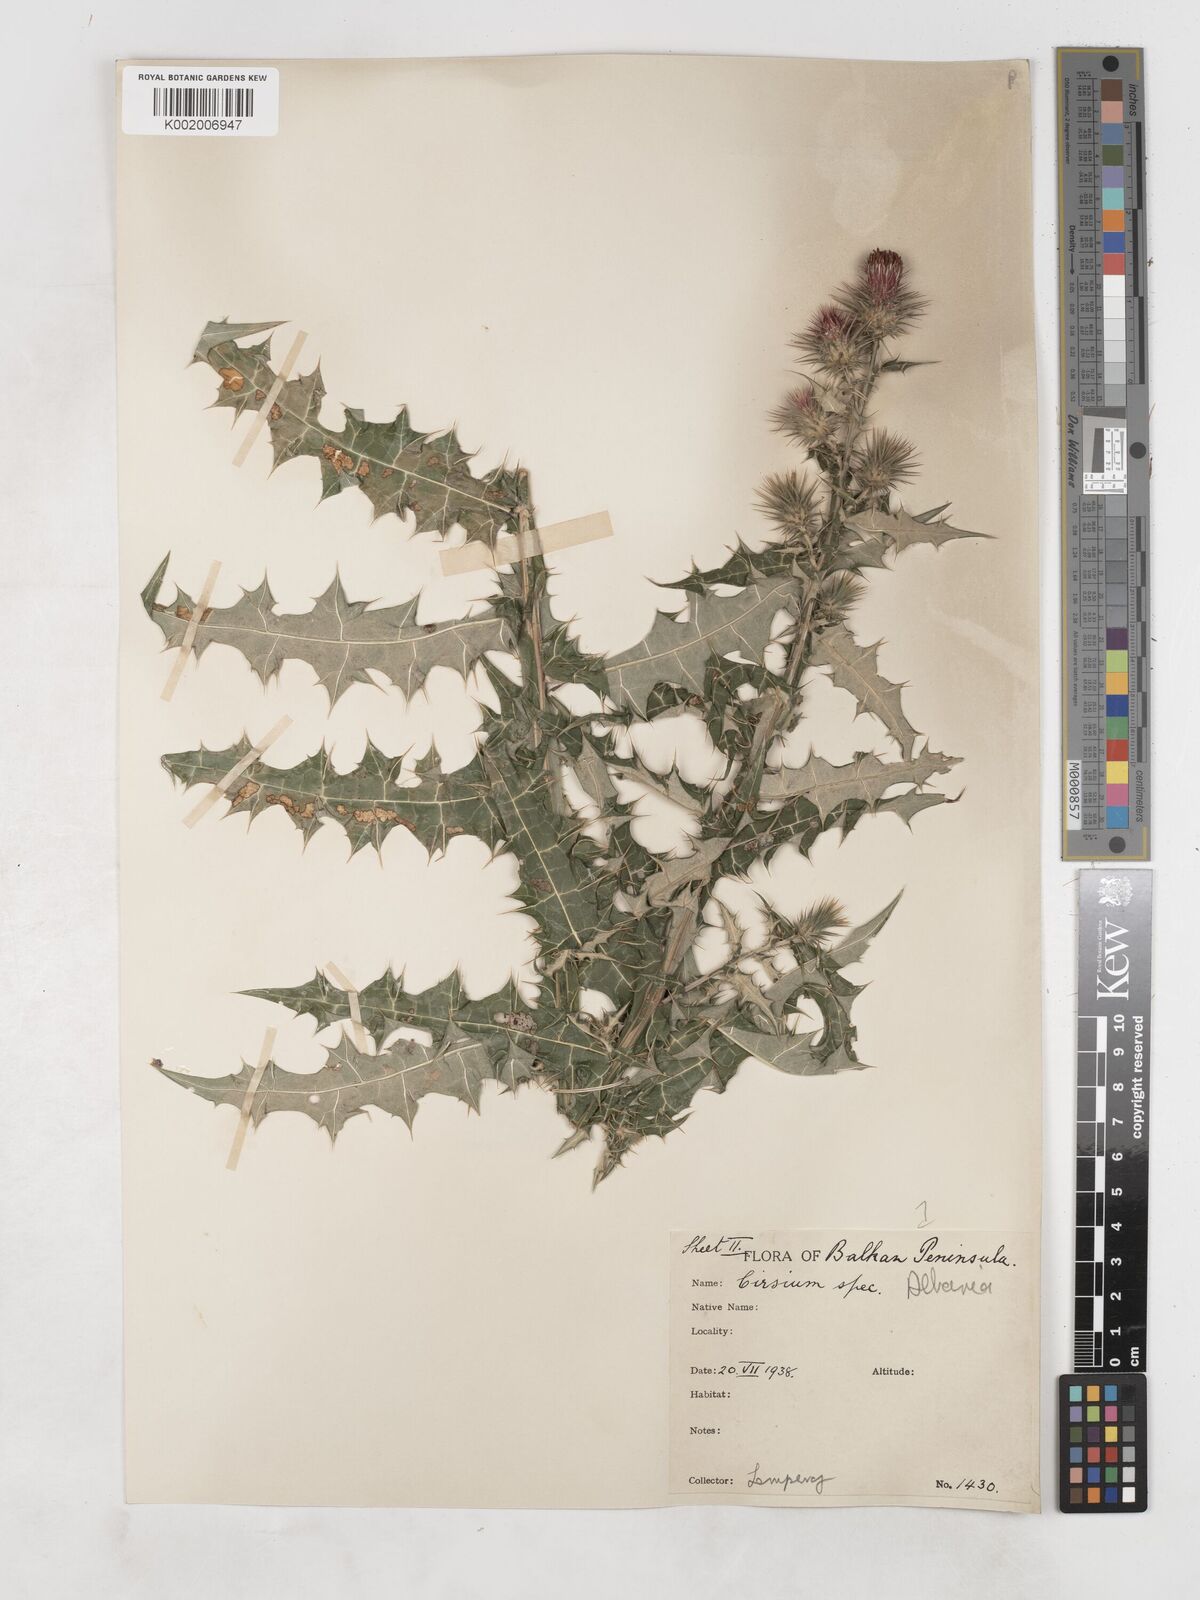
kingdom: Plantae
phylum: Tracheophyta
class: Magnoliopsida
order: Asterales
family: Asteraceae
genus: Ptilostemon
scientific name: Ptilostemon strictus
